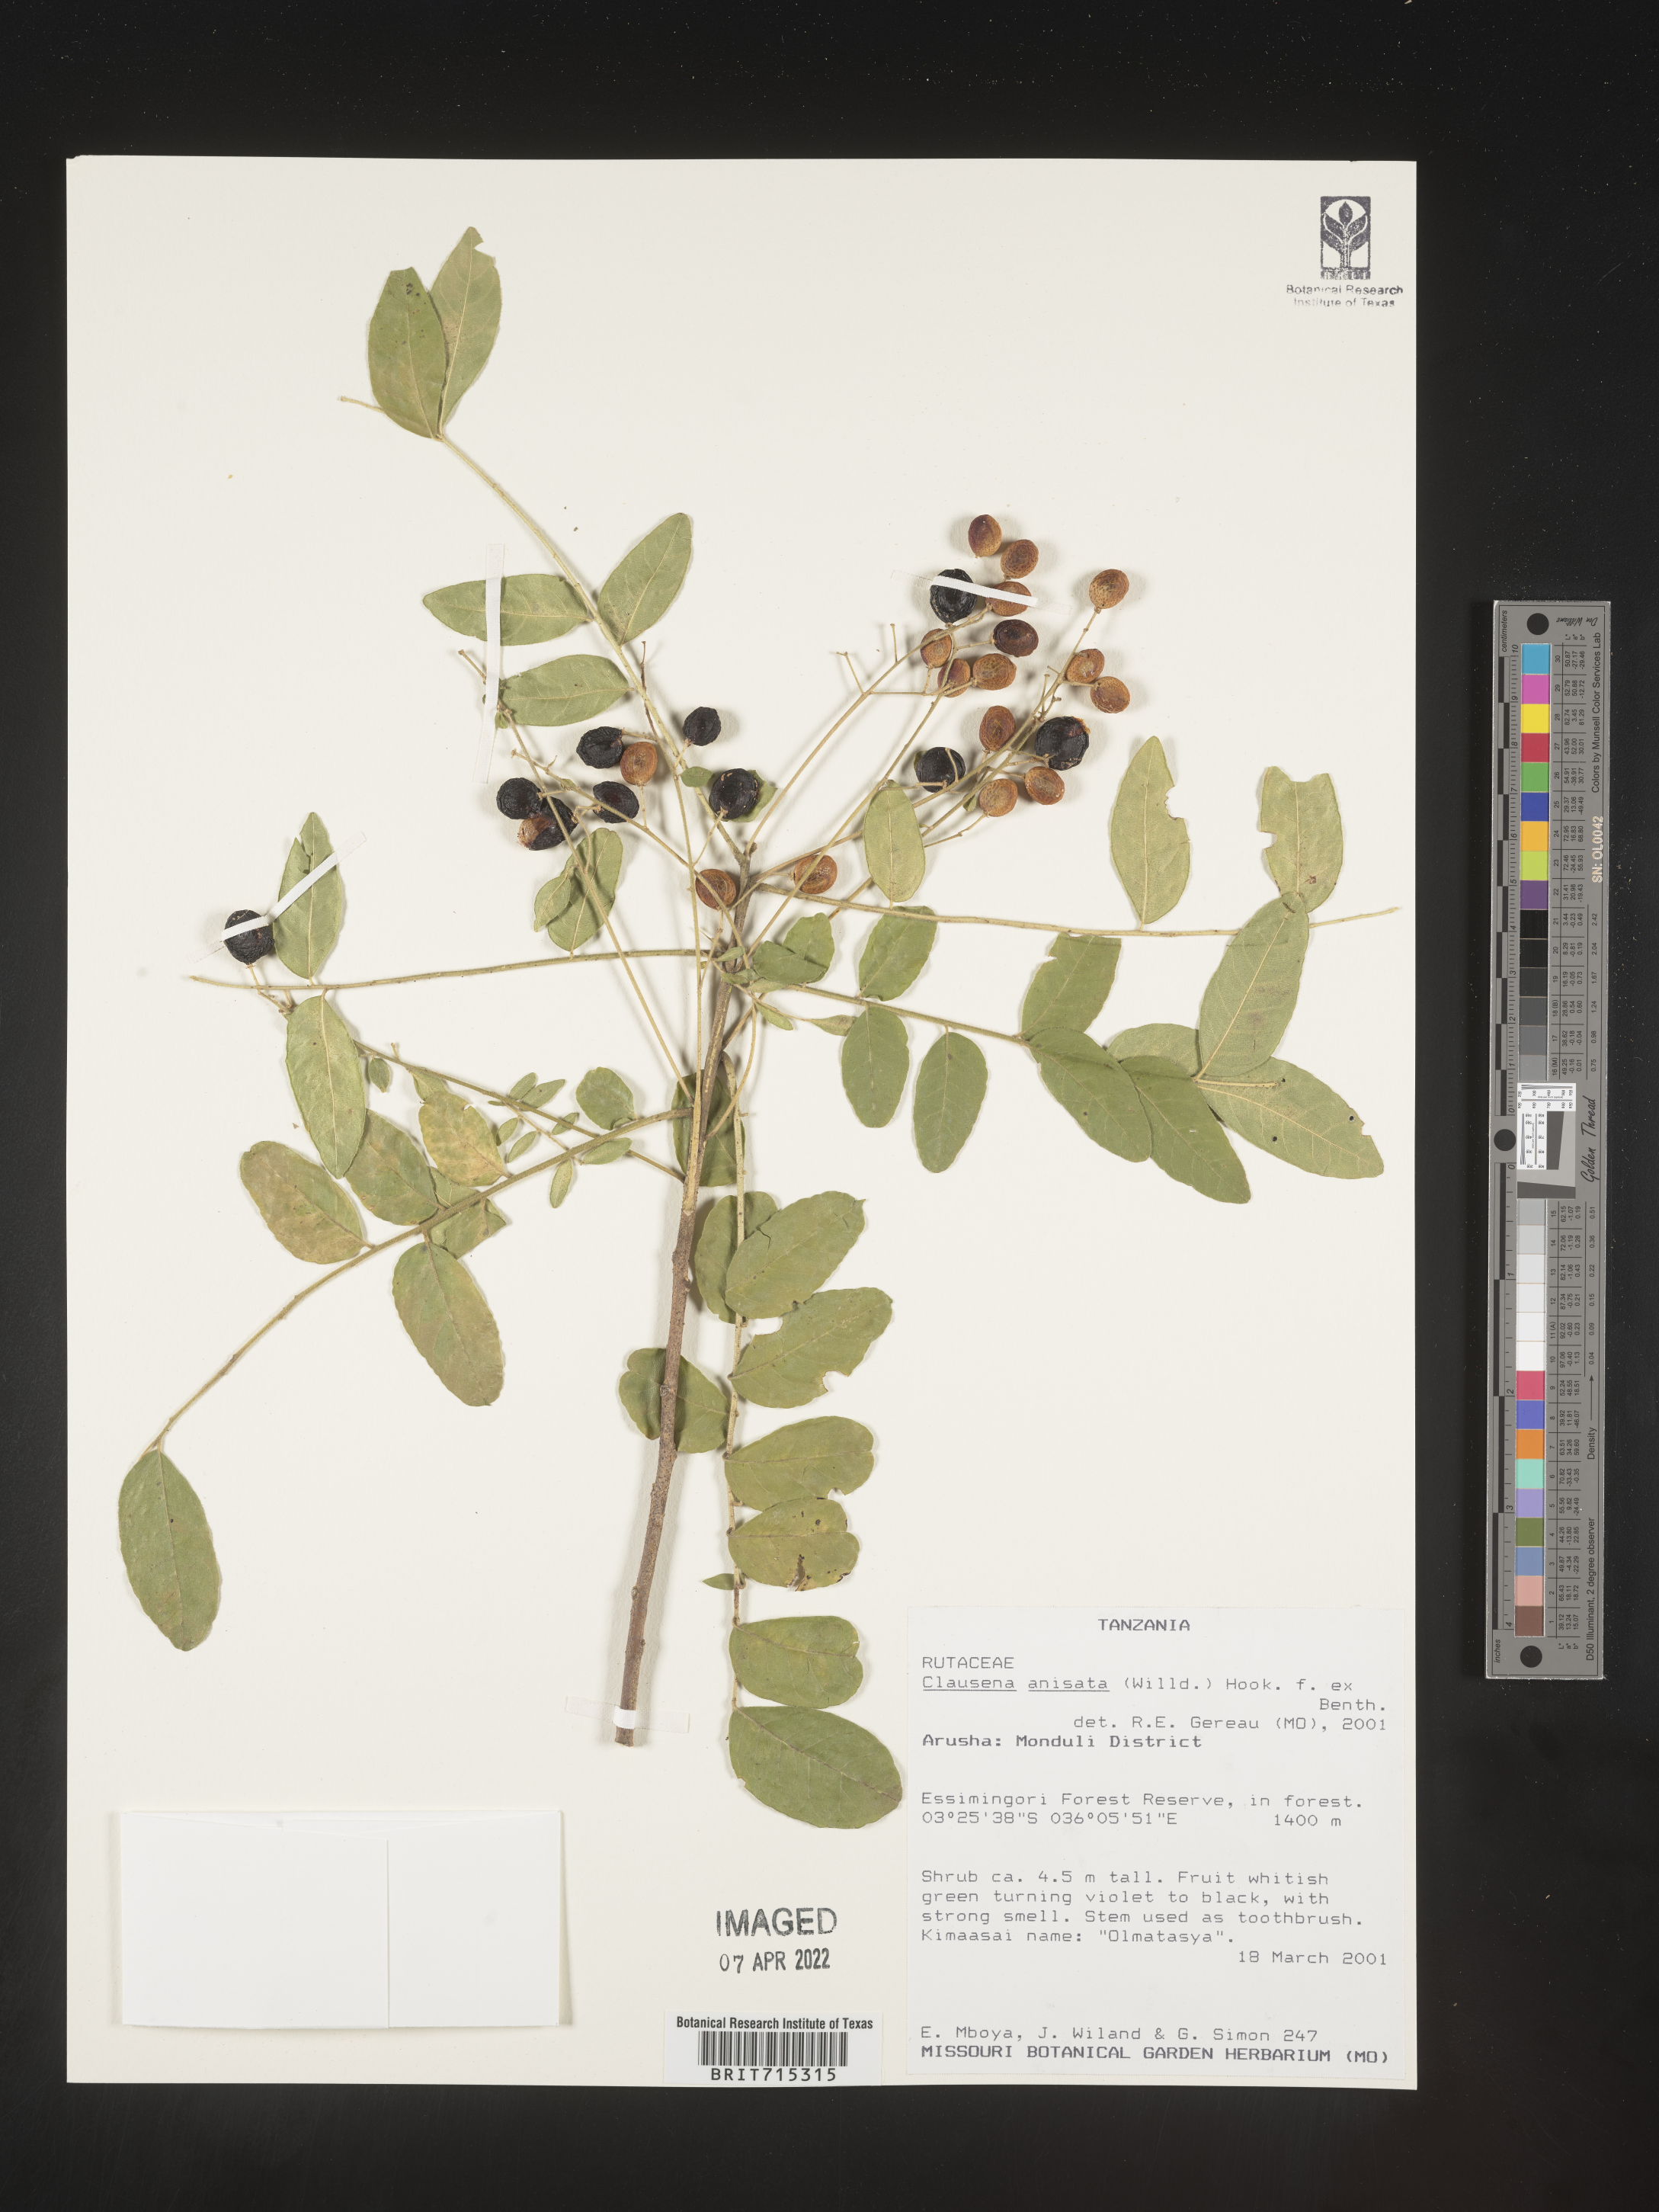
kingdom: Plantae
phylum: Tracheophyta
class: Magnoliopsida
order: Sapindales
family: Rutaceae
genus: Clausena
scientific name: Clausena
